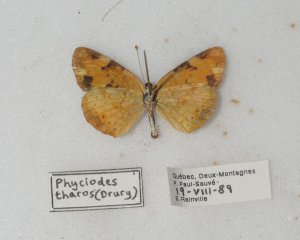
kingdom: Animalia
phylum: Arthropoda
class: Insecta
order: Lepidoptera
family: Nymphalidae
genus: Phyciodes
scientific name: Phyciodes tharos
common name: Northern Crescent
